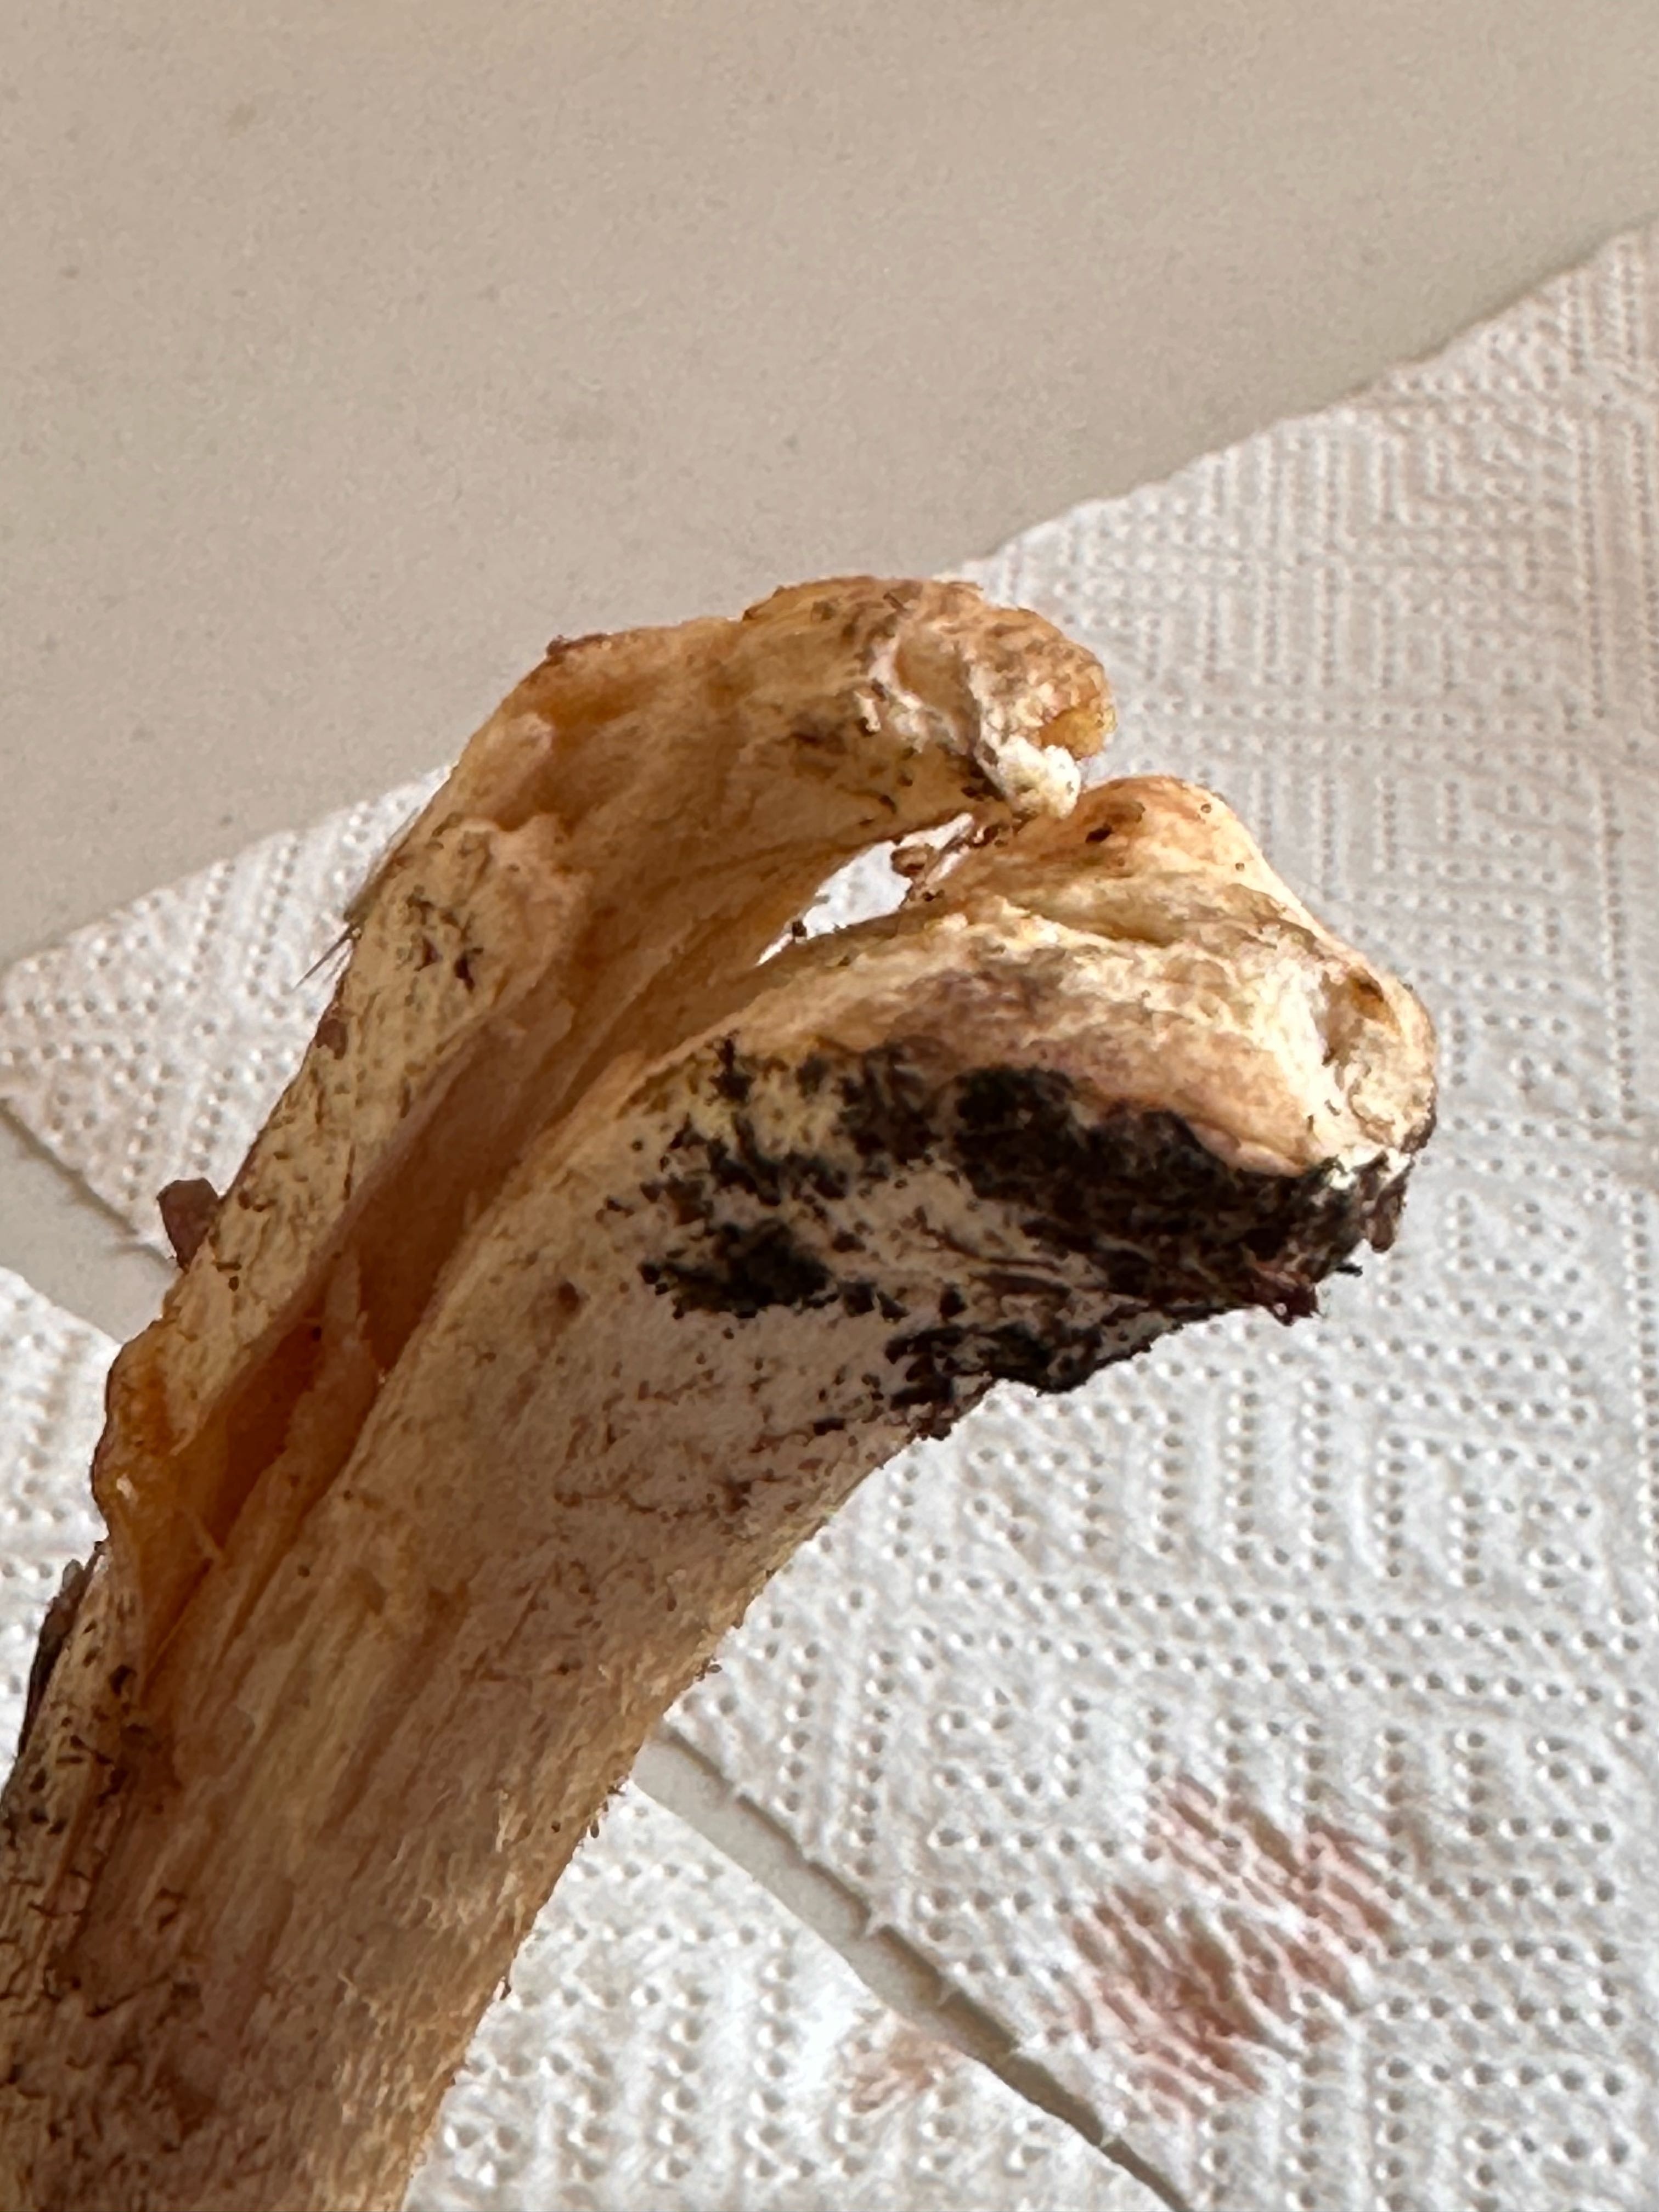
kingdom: Fungi
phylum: Basidiomycota
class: Agaricomycetes
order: Agaricales
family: Agaricaceae
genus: Agaricus
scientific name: Agaricus augustus
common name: prægtig champignon
